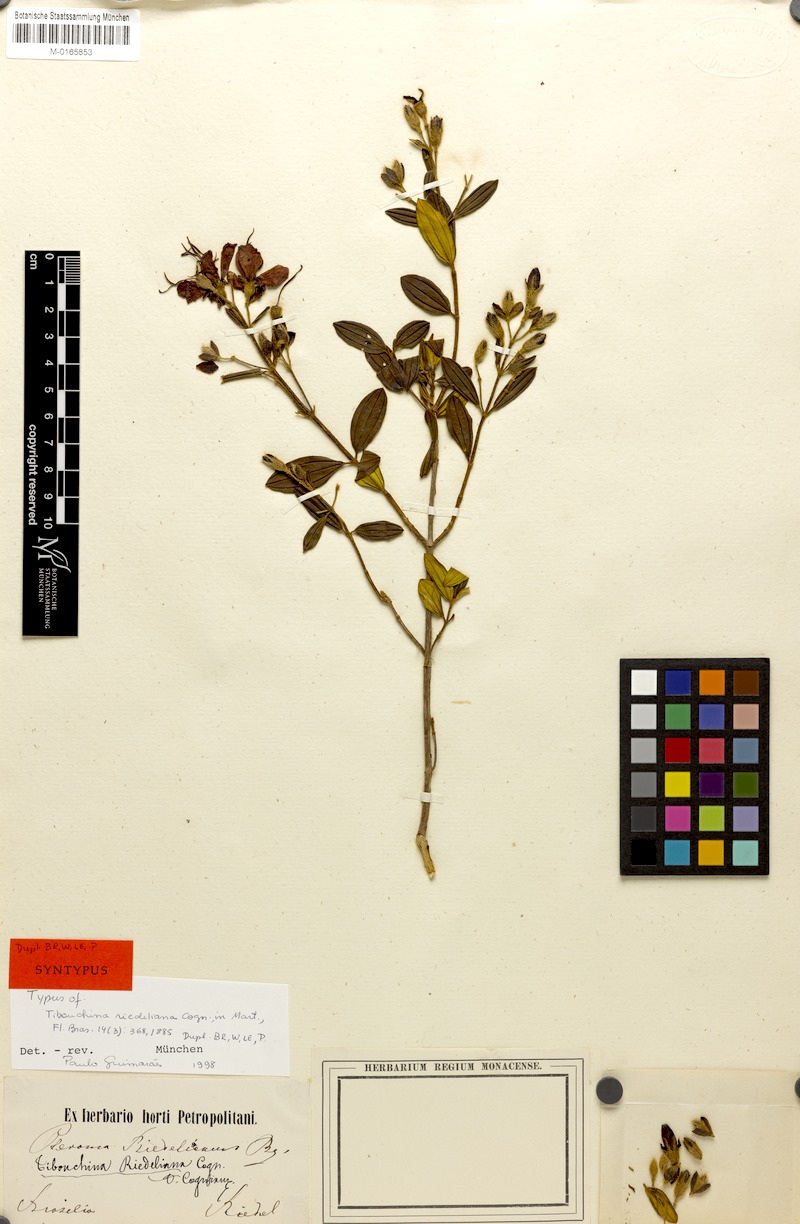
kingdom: Plantae
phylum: Tracheophyta
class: Magnoliopsida
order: Myrtales
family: Melastomataceae
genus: Pleroma
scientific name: Pleroma riedelianum
